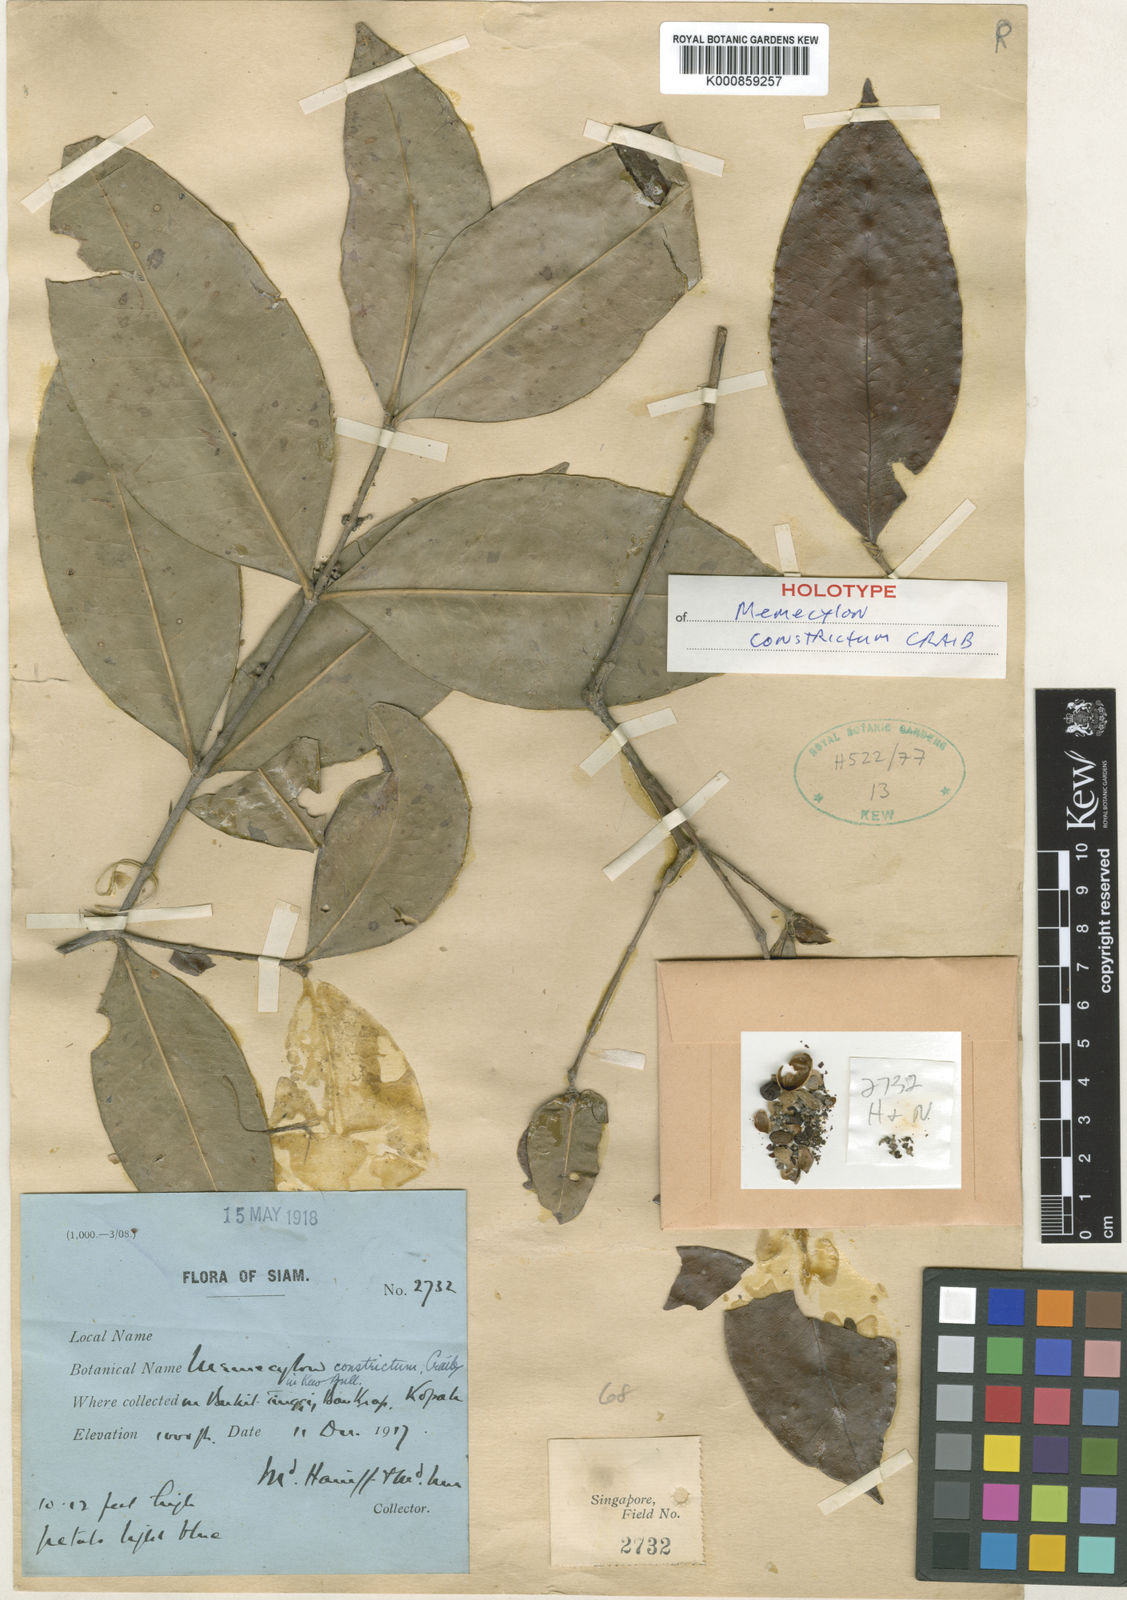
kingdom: Plantae
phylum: Tracheophyta
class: Magnoliopsida
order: Myrtales
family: Melastomataceae
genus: Memecylon
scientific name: Memecylon minutiflorum
